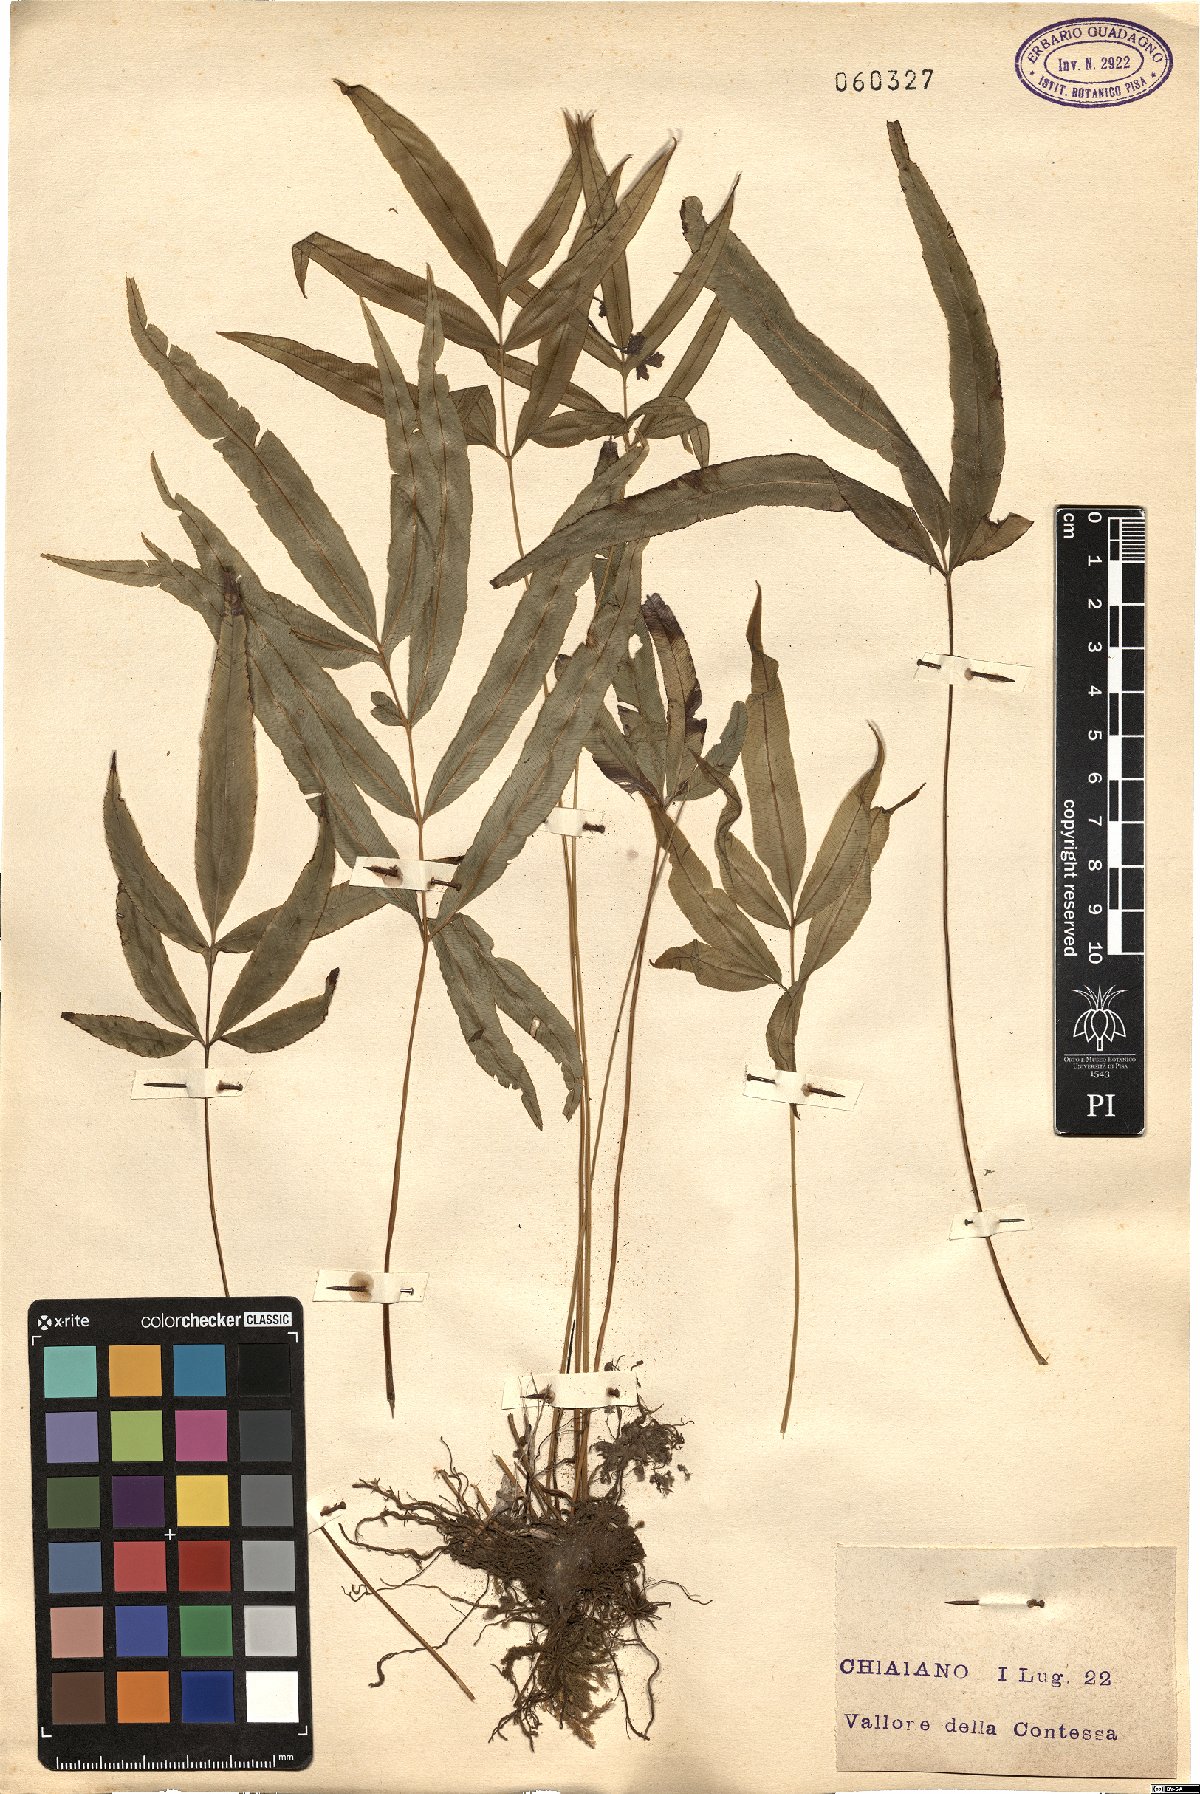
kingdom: Plantae
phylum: Tracheophyta
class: Polypodiopsida
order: Polypodiales
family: Pteridaceae
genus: Pteris
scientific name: Pteris cretica
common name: Ribbon fern
